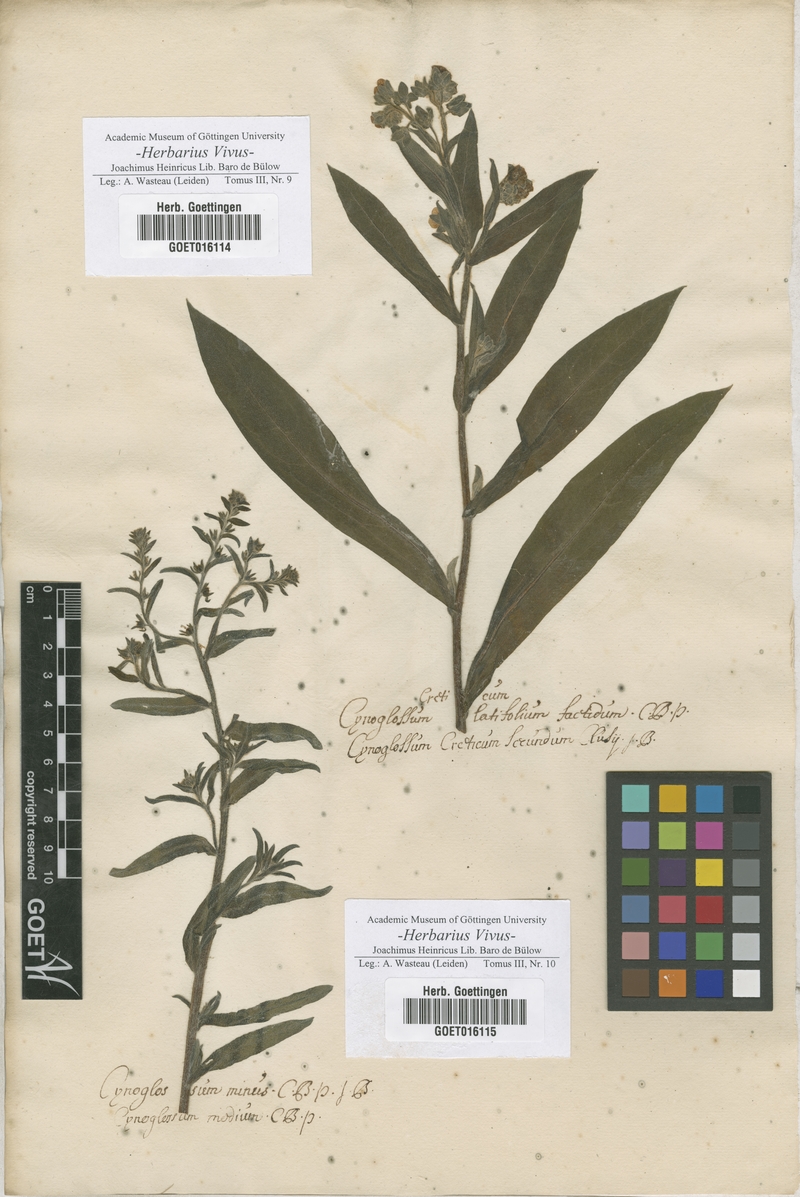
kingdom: Plantae
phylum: Tracheophyta
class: Magnoliopsida
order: Boraginales
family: Boraginaceae
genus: Cynoglossum
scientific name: Cynoglossum
